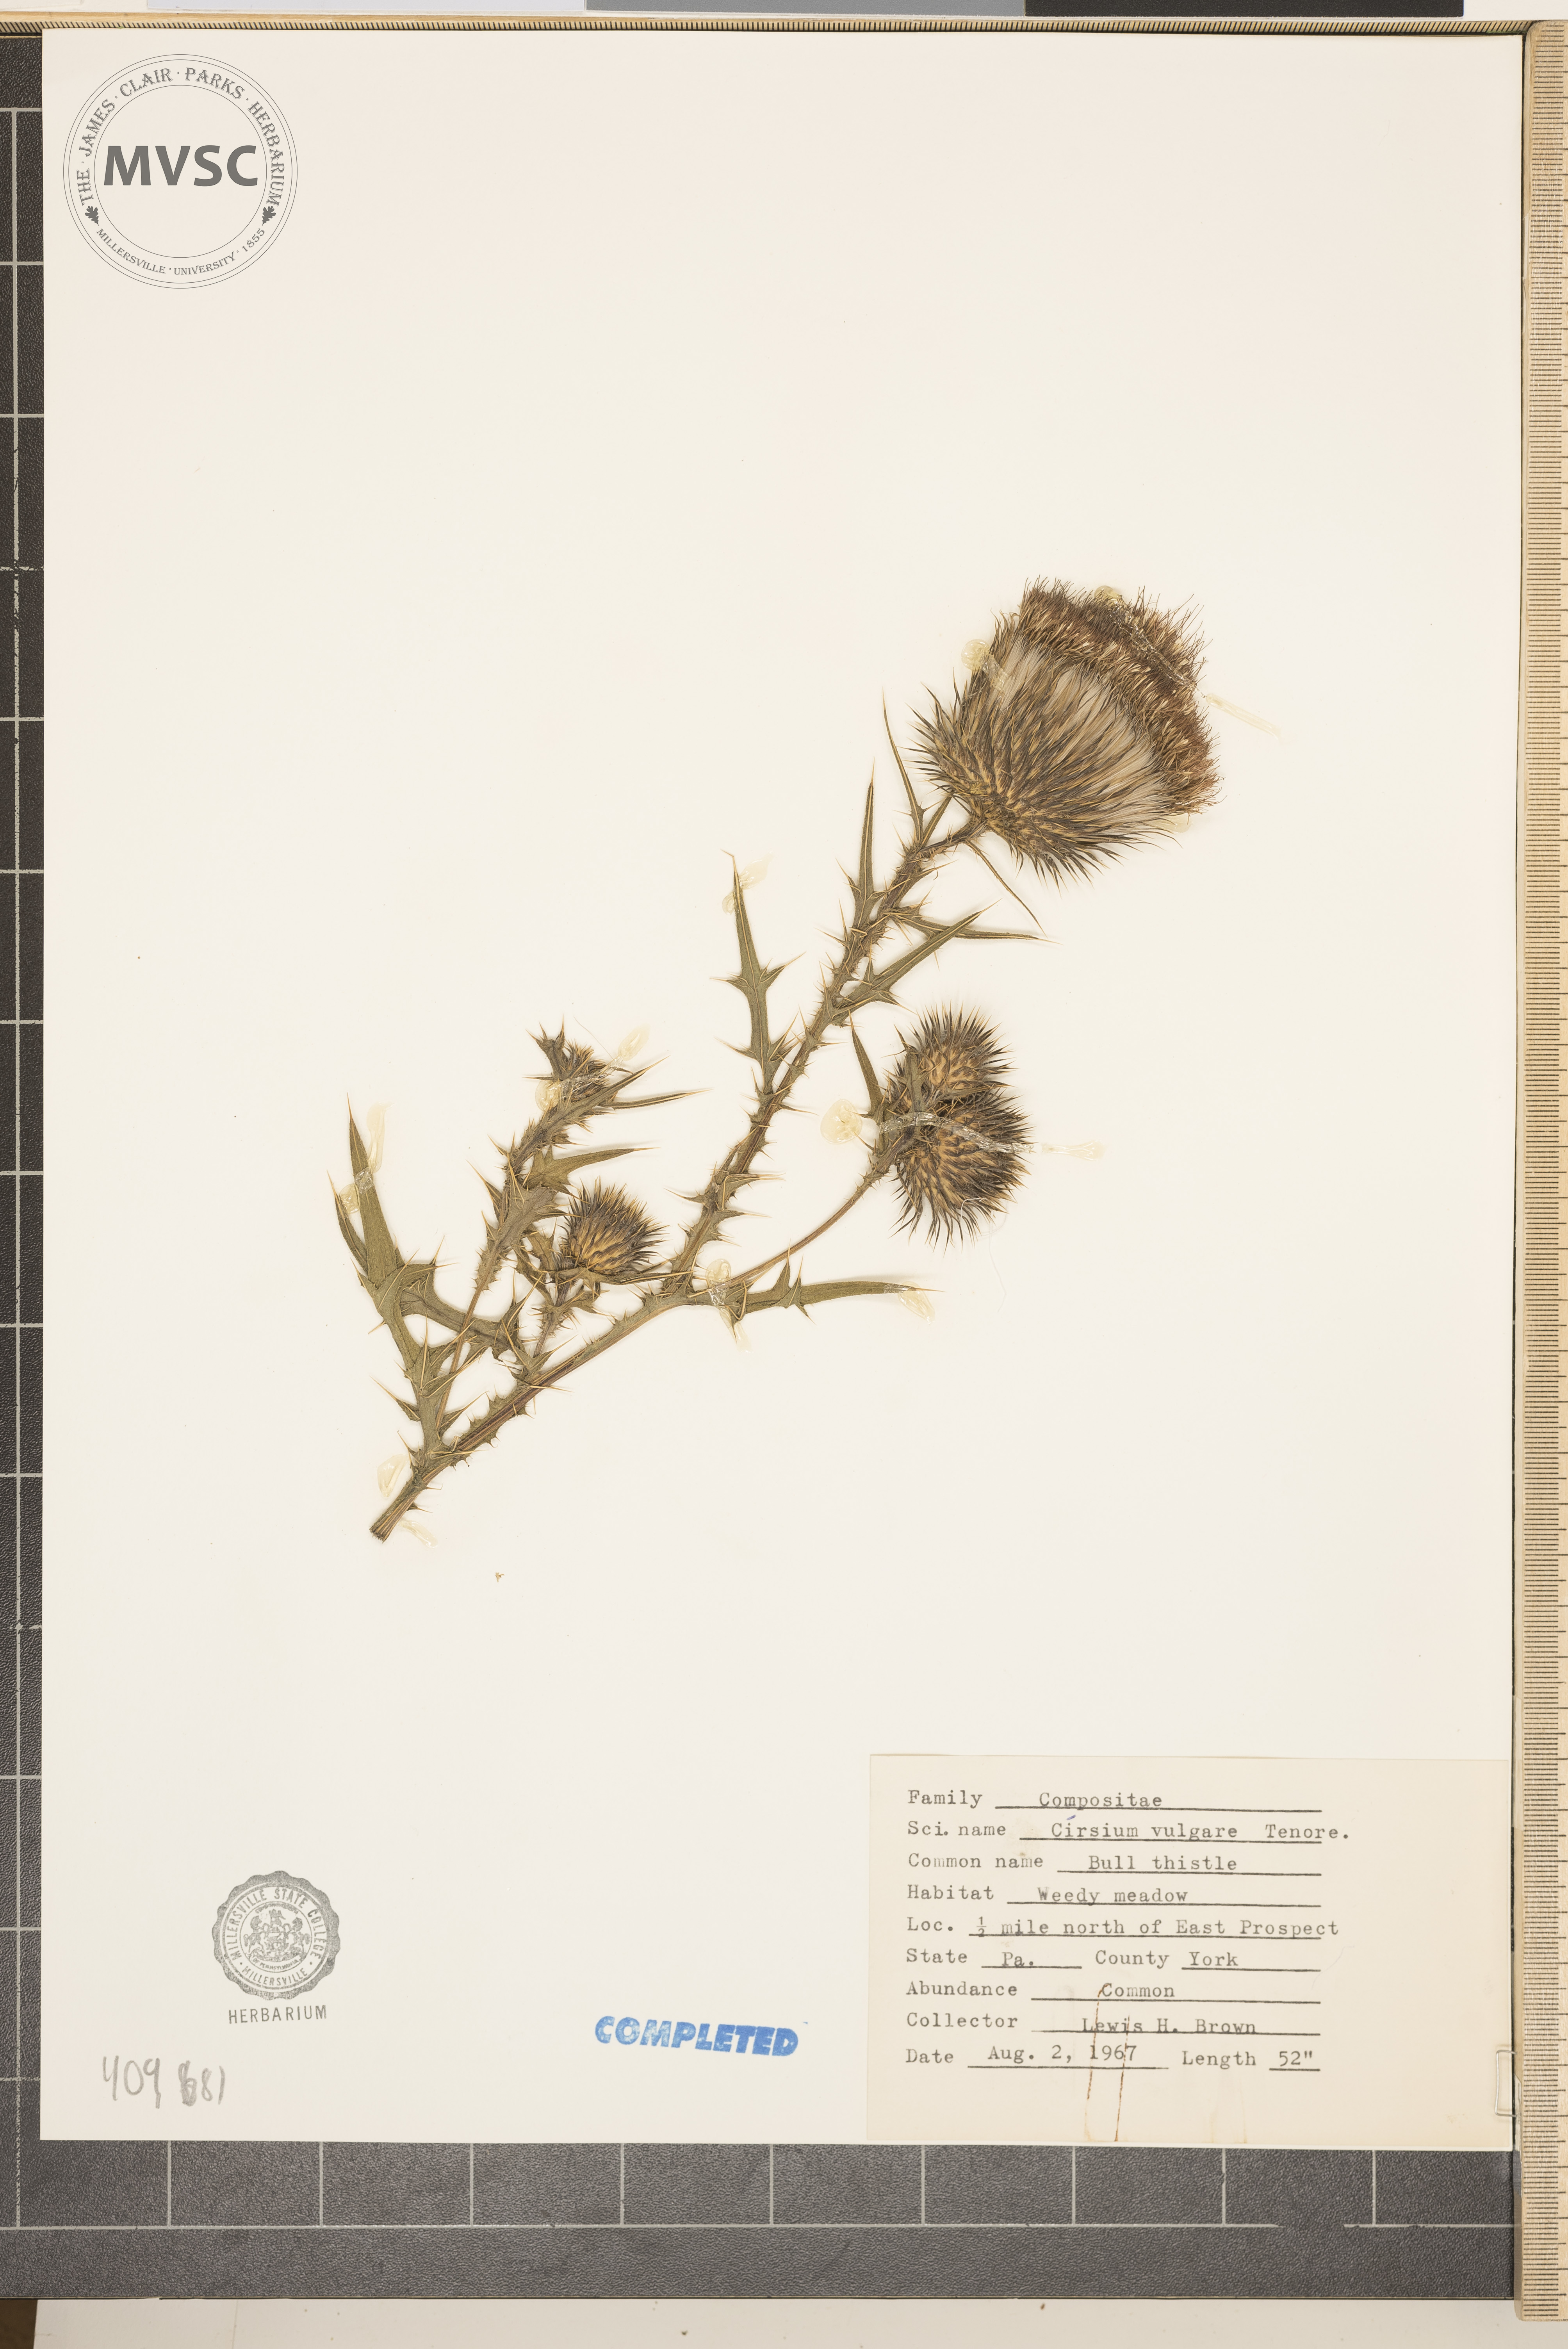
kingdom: Plantae
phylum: Tracheophyta
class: Magnoliopsida
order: Asterales
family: Asteraceae
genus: Cirsium
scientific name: Cirsium vulgare
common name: bull thistle
